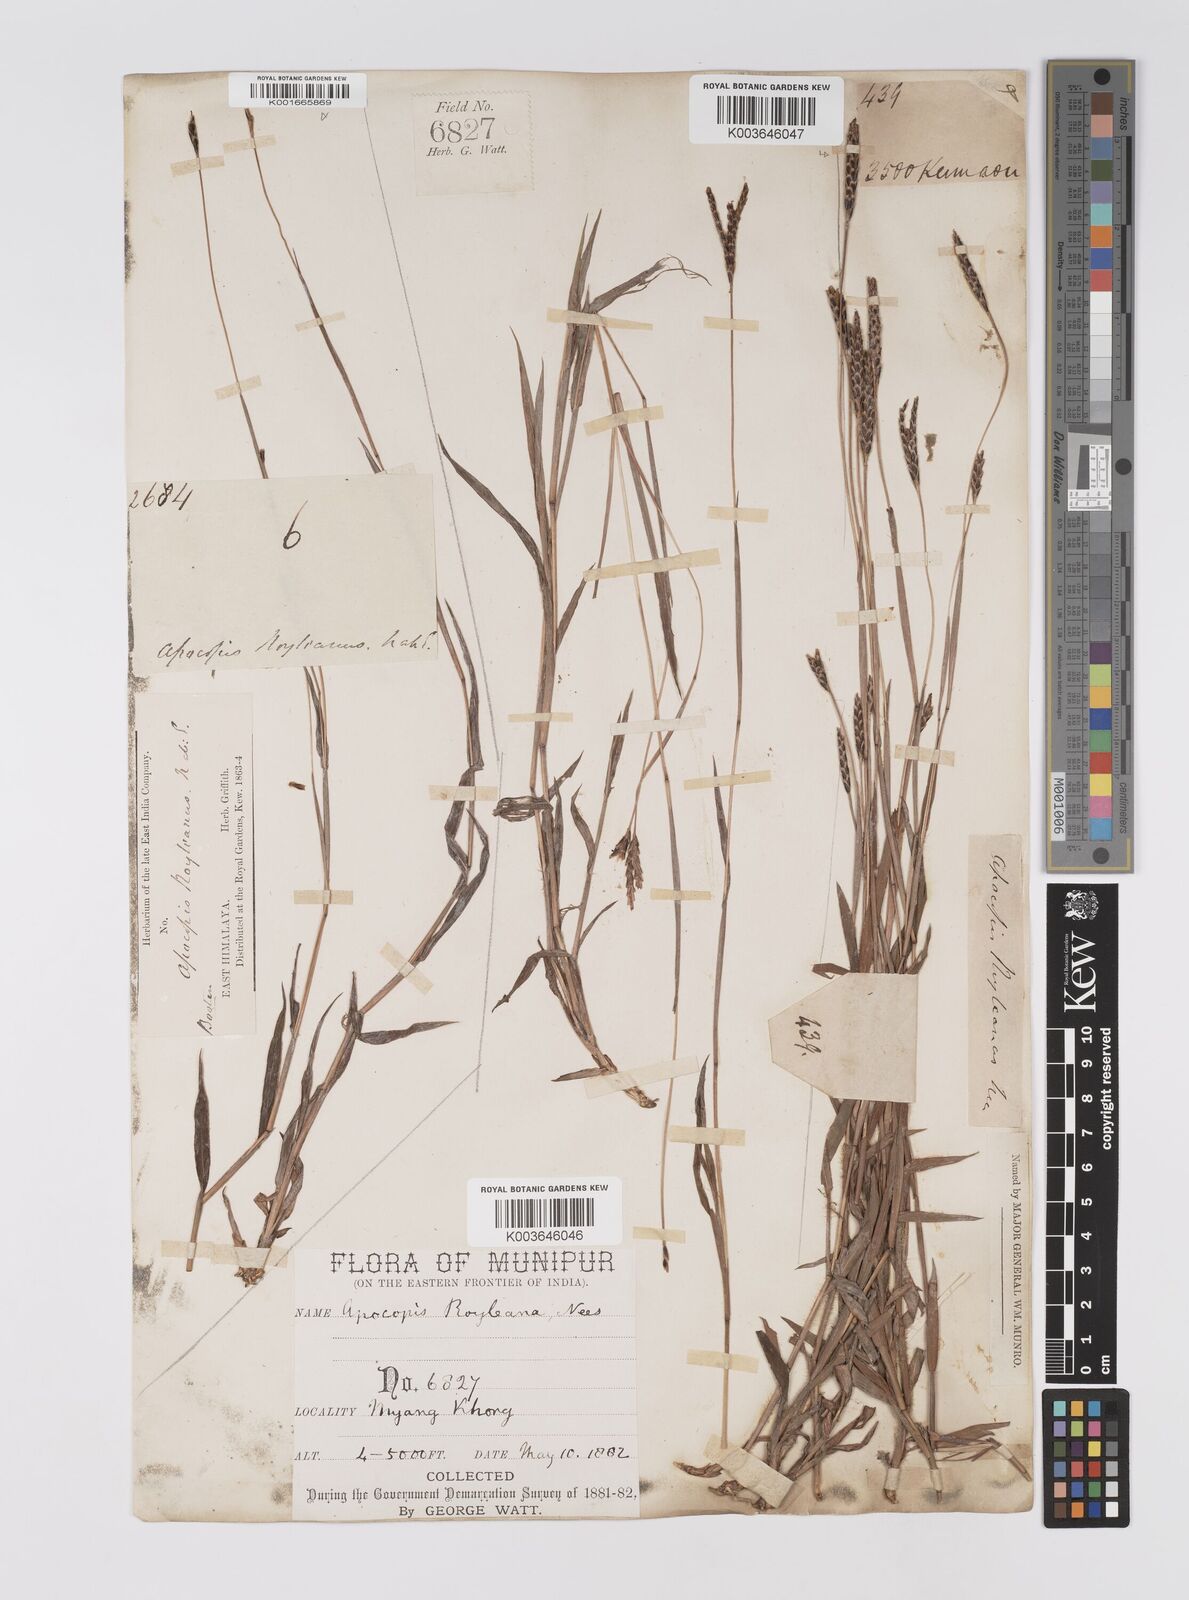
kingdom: Plantae
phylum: Tracheophyta
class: Liliopsida
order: Poales
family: Poaceae
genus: Apocopis
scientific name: Apocopis paleaceus
